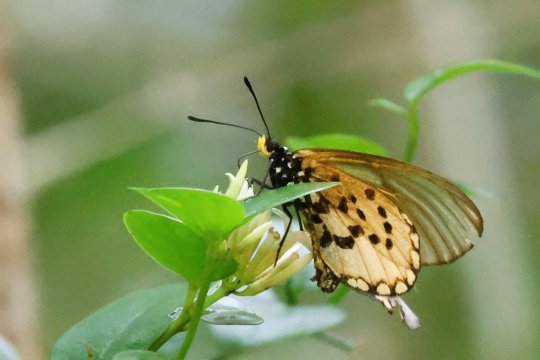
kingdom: Animalia
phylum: Arthropoda
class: Insecta
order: Lepidoptera
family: Nymphalidae
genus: Acraea
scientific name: Acraea horta
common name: Garden Acraea
